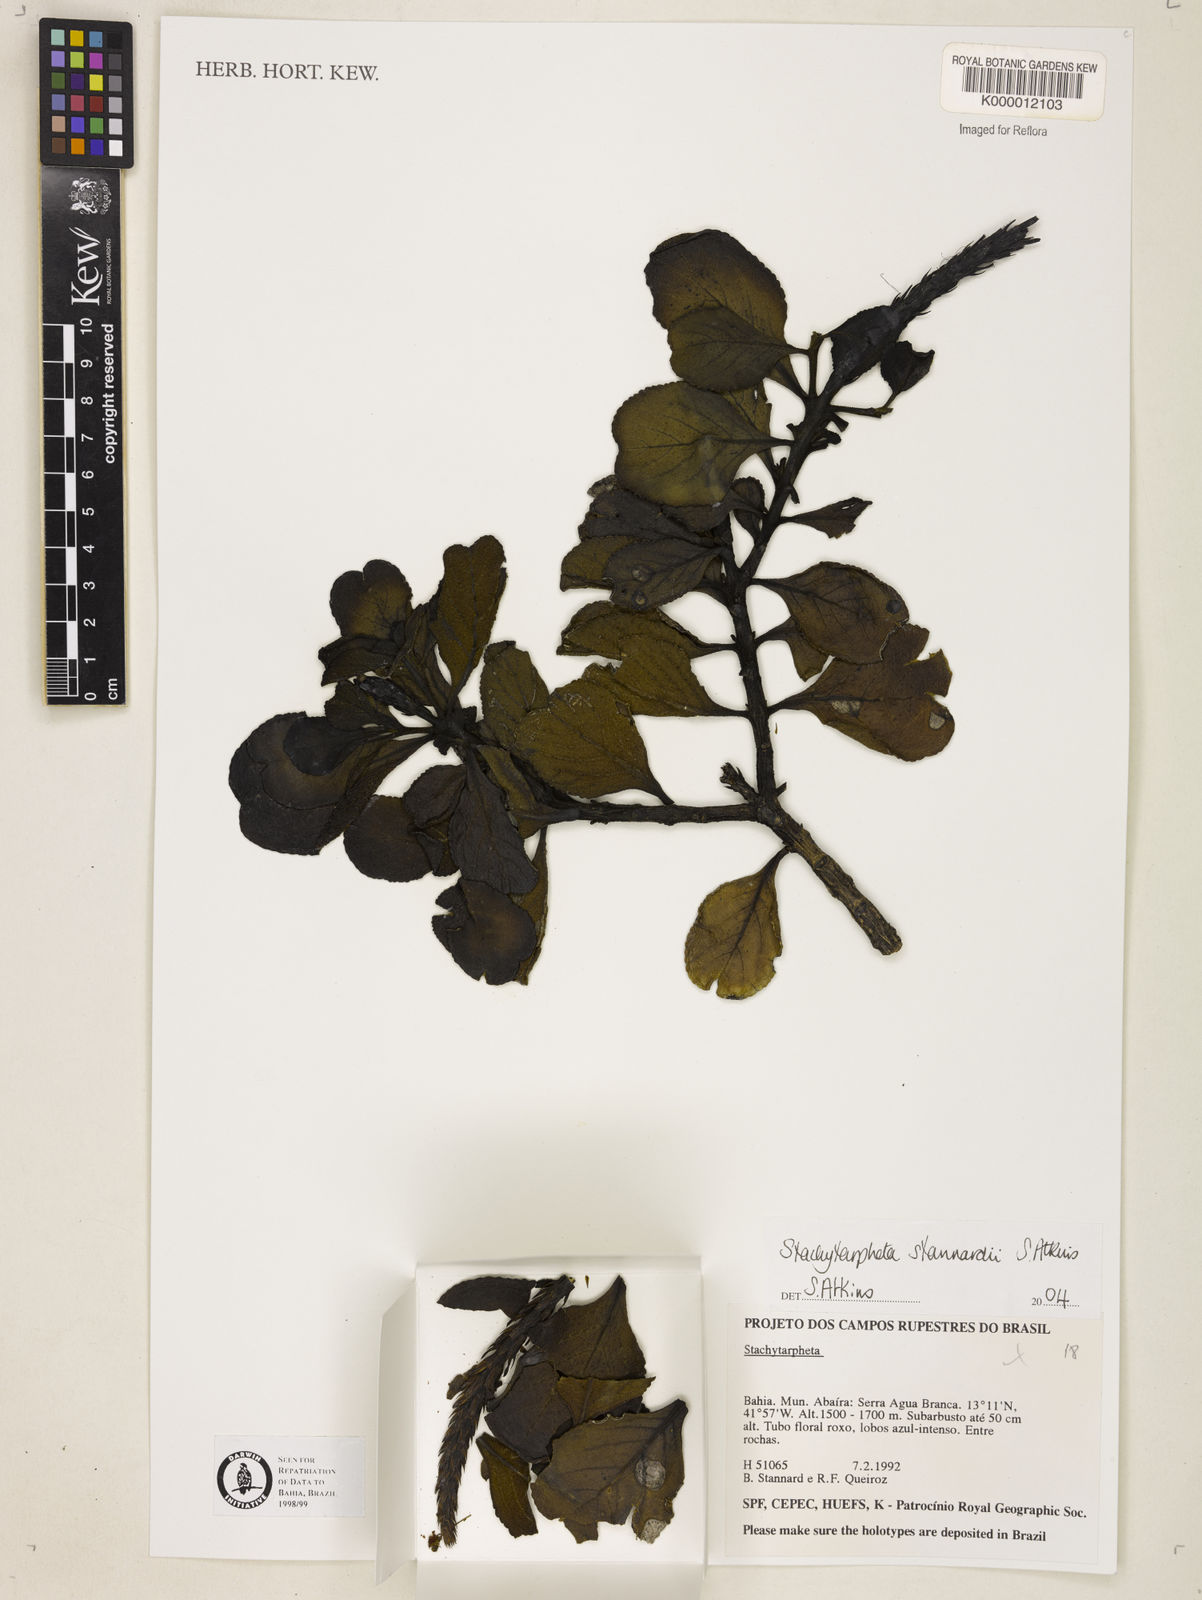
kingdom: Plantae
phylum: Tracheophyta
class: Magnoliopsida
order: Lamiales
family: Verbenaceae
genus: Stachytarpheta
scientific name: Stachytarpheta
